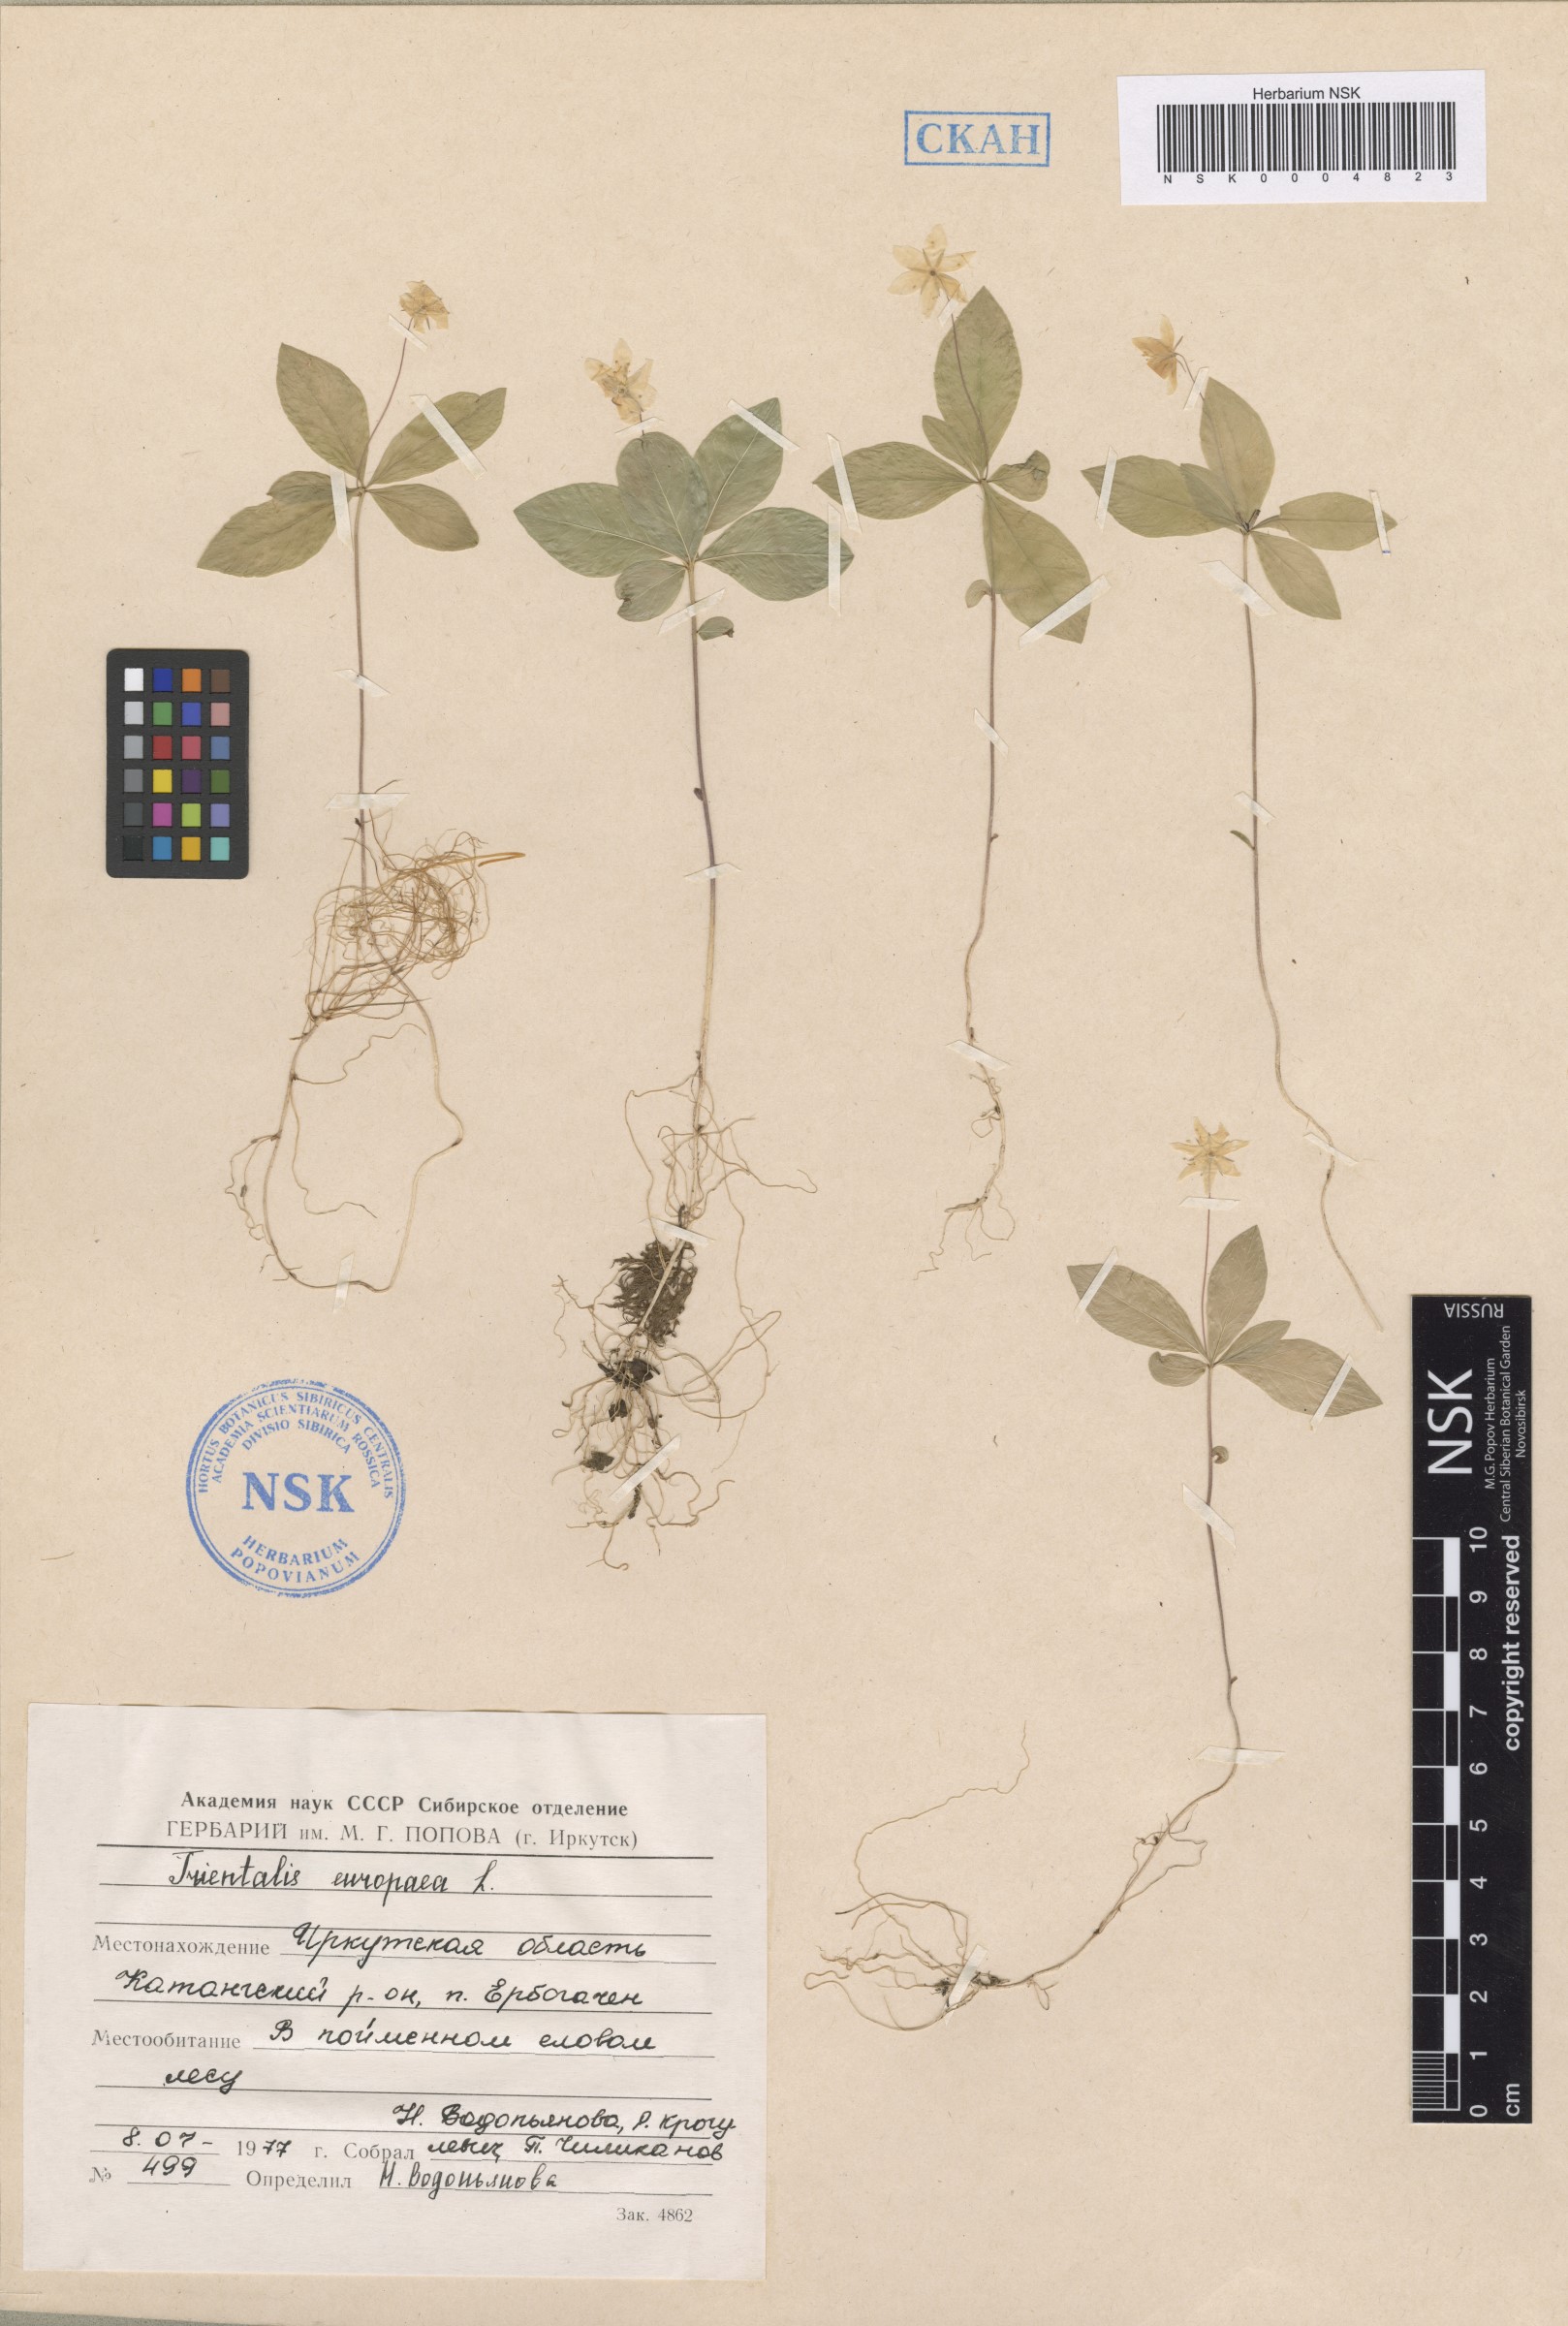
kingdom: Plantae
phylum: Tracheophyta
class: Magnoliopsida
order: Ericales
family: Primulaceae
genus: Lysimachia
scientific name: Lysimachia europaea
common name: Arctic starflower
